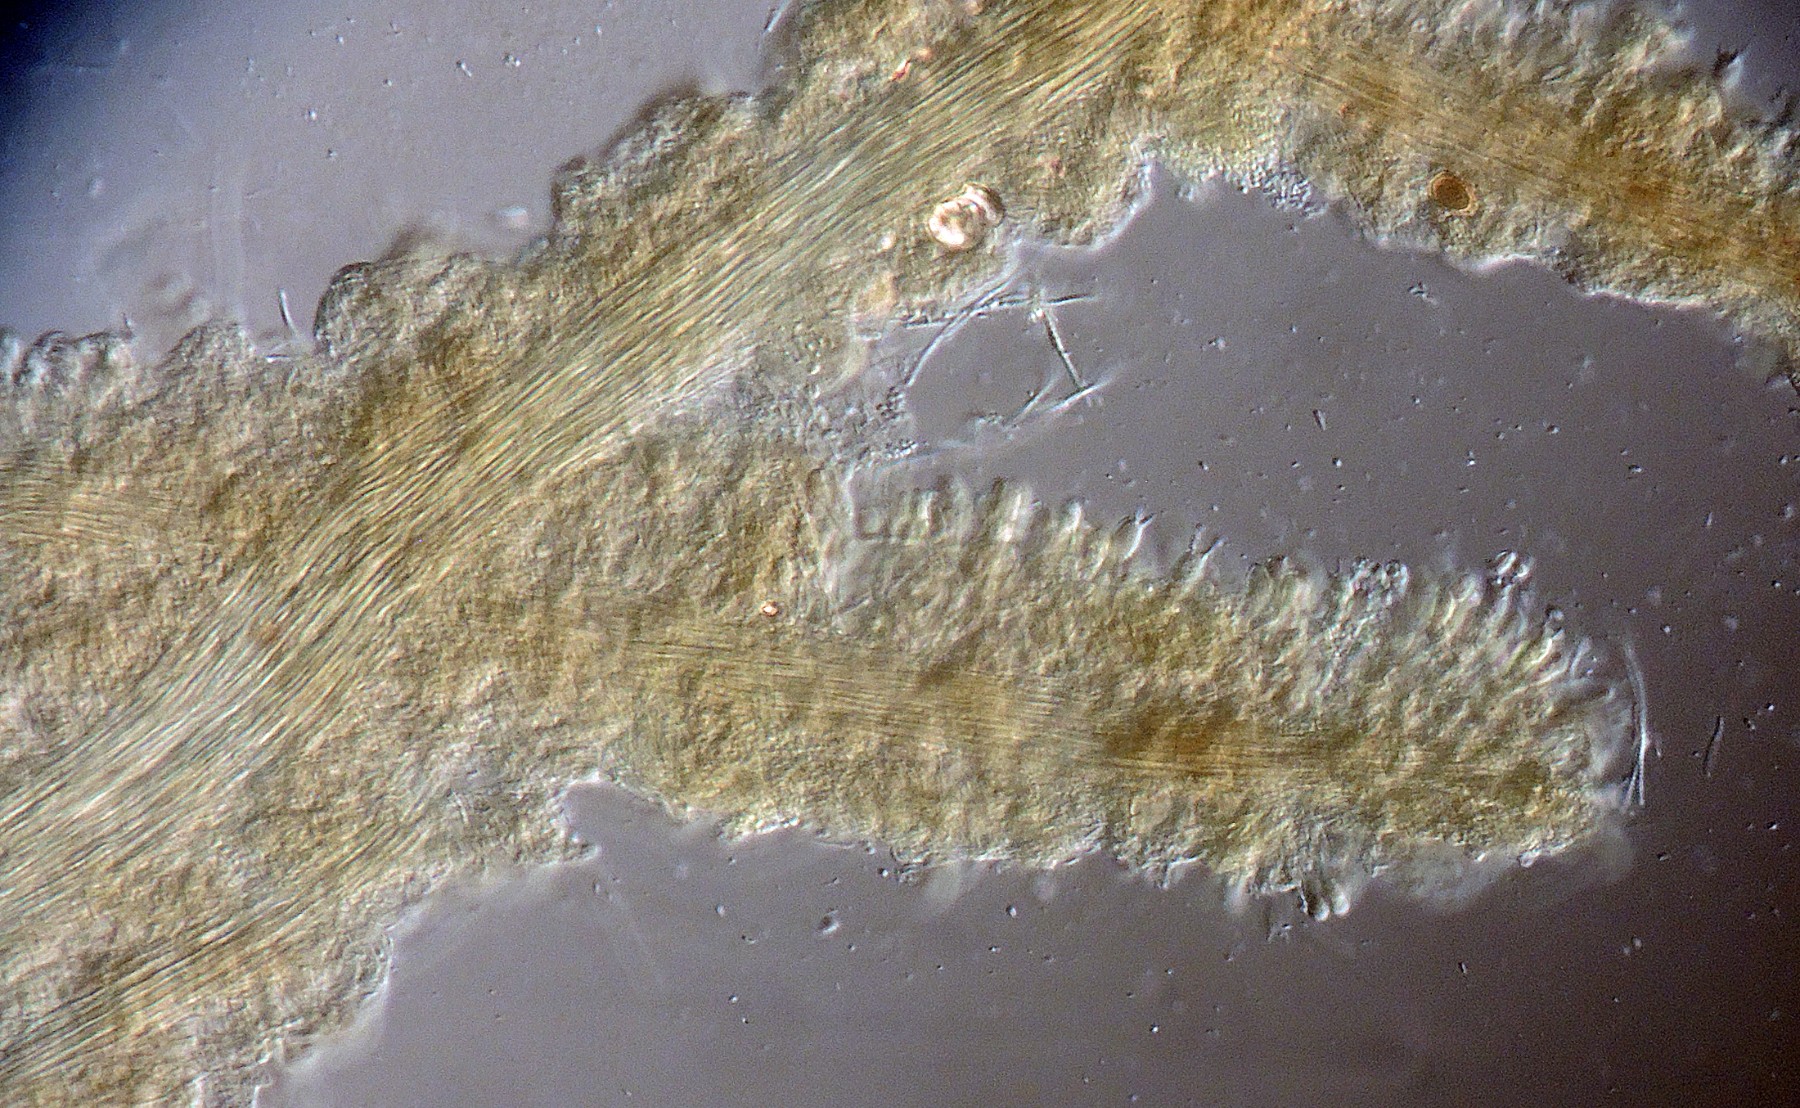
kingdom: Fungi
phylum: Basidiomycota
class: Agaricomycetes
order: Gomphales
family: Gomphaceae
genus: Ceratellopsis
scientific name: Ceratellopsis acuminata
